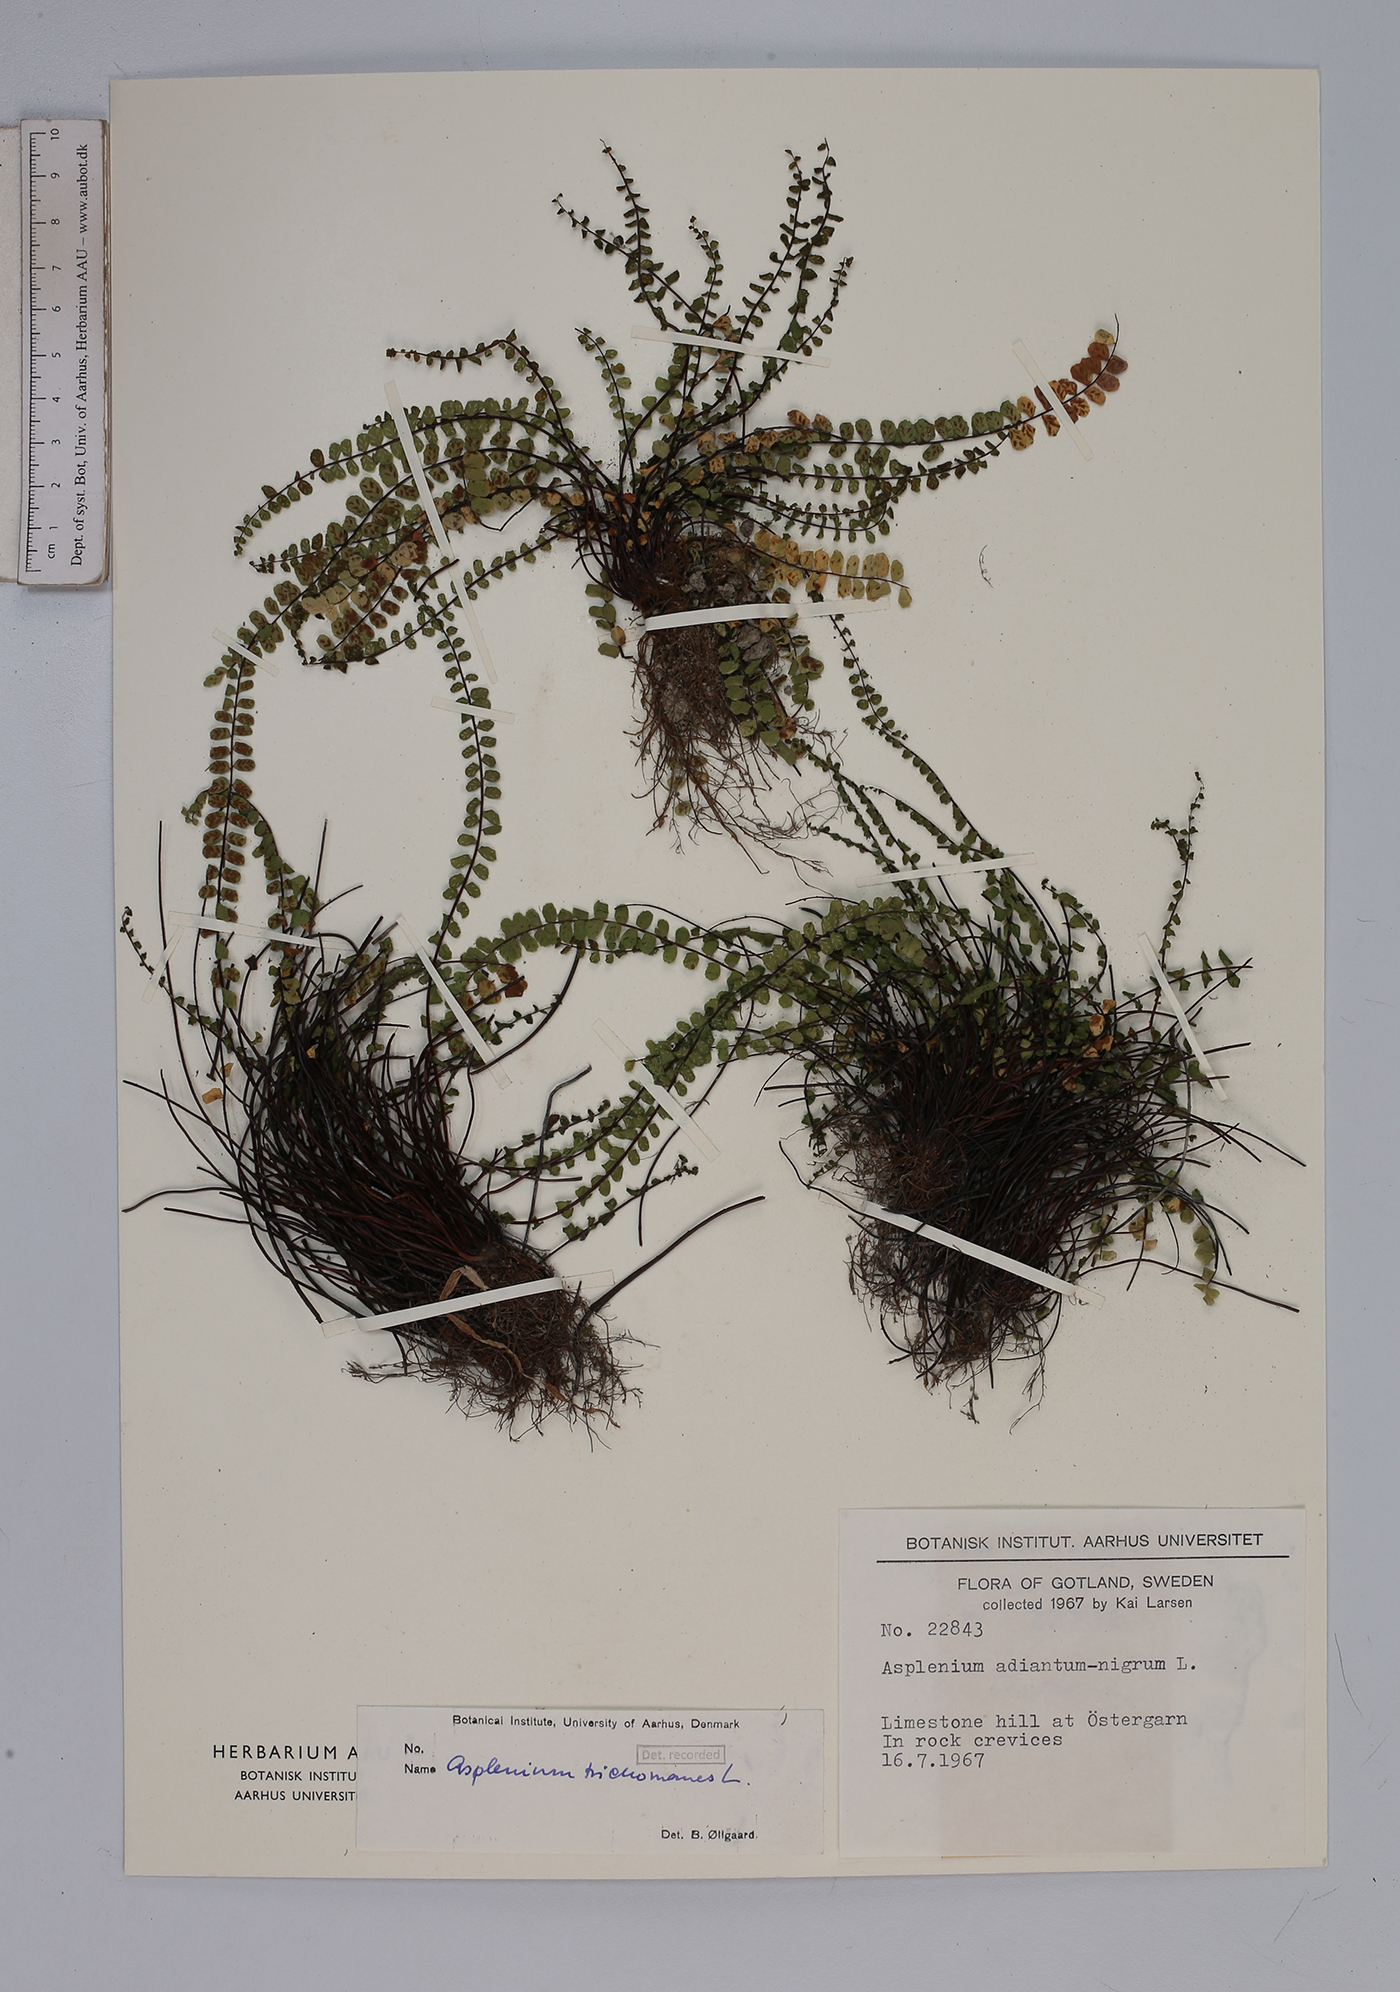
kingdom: Plantae
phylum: Tracheophyta
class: Polypodiopsida
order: Polypodiales
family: Aspleniaceae
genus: Asplenium
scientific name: Asplenium trichomanes
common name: Maidenhair spleenwort
